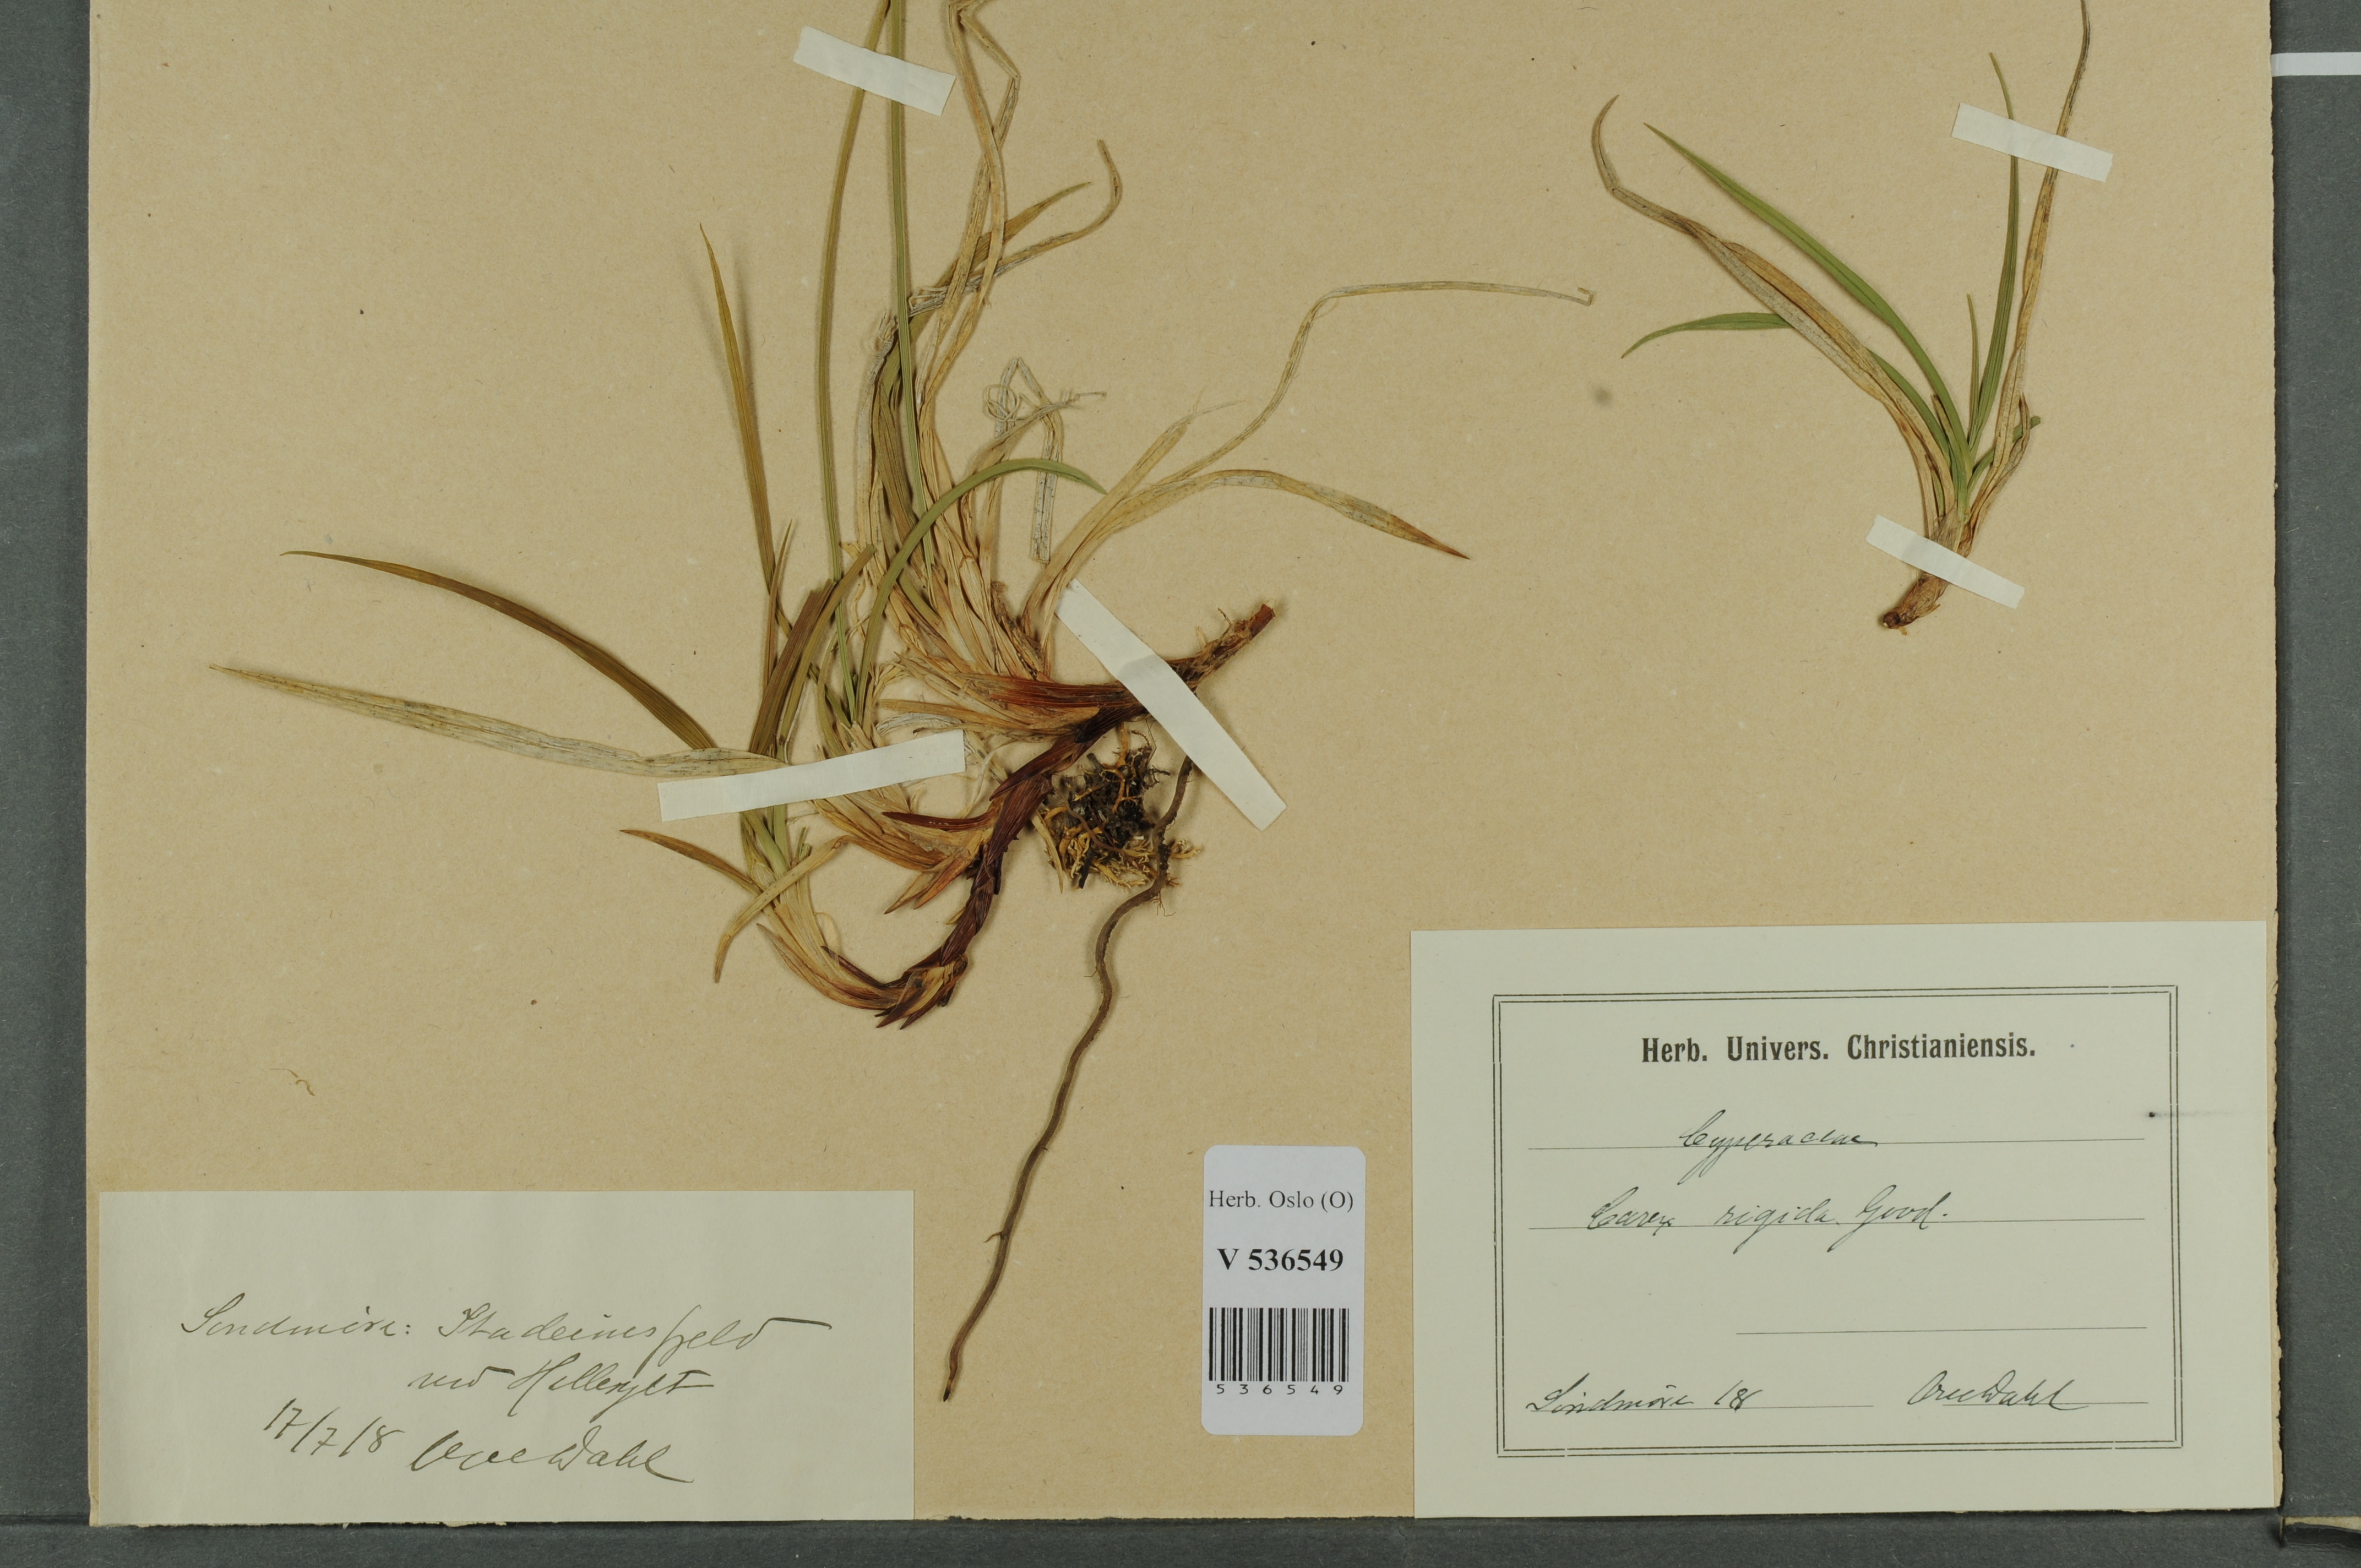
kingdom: Plantae
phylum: Tracheophyta
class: Liliopsida
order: Poales
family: Cyperaceae
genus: Carex
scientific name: Carex dacica
